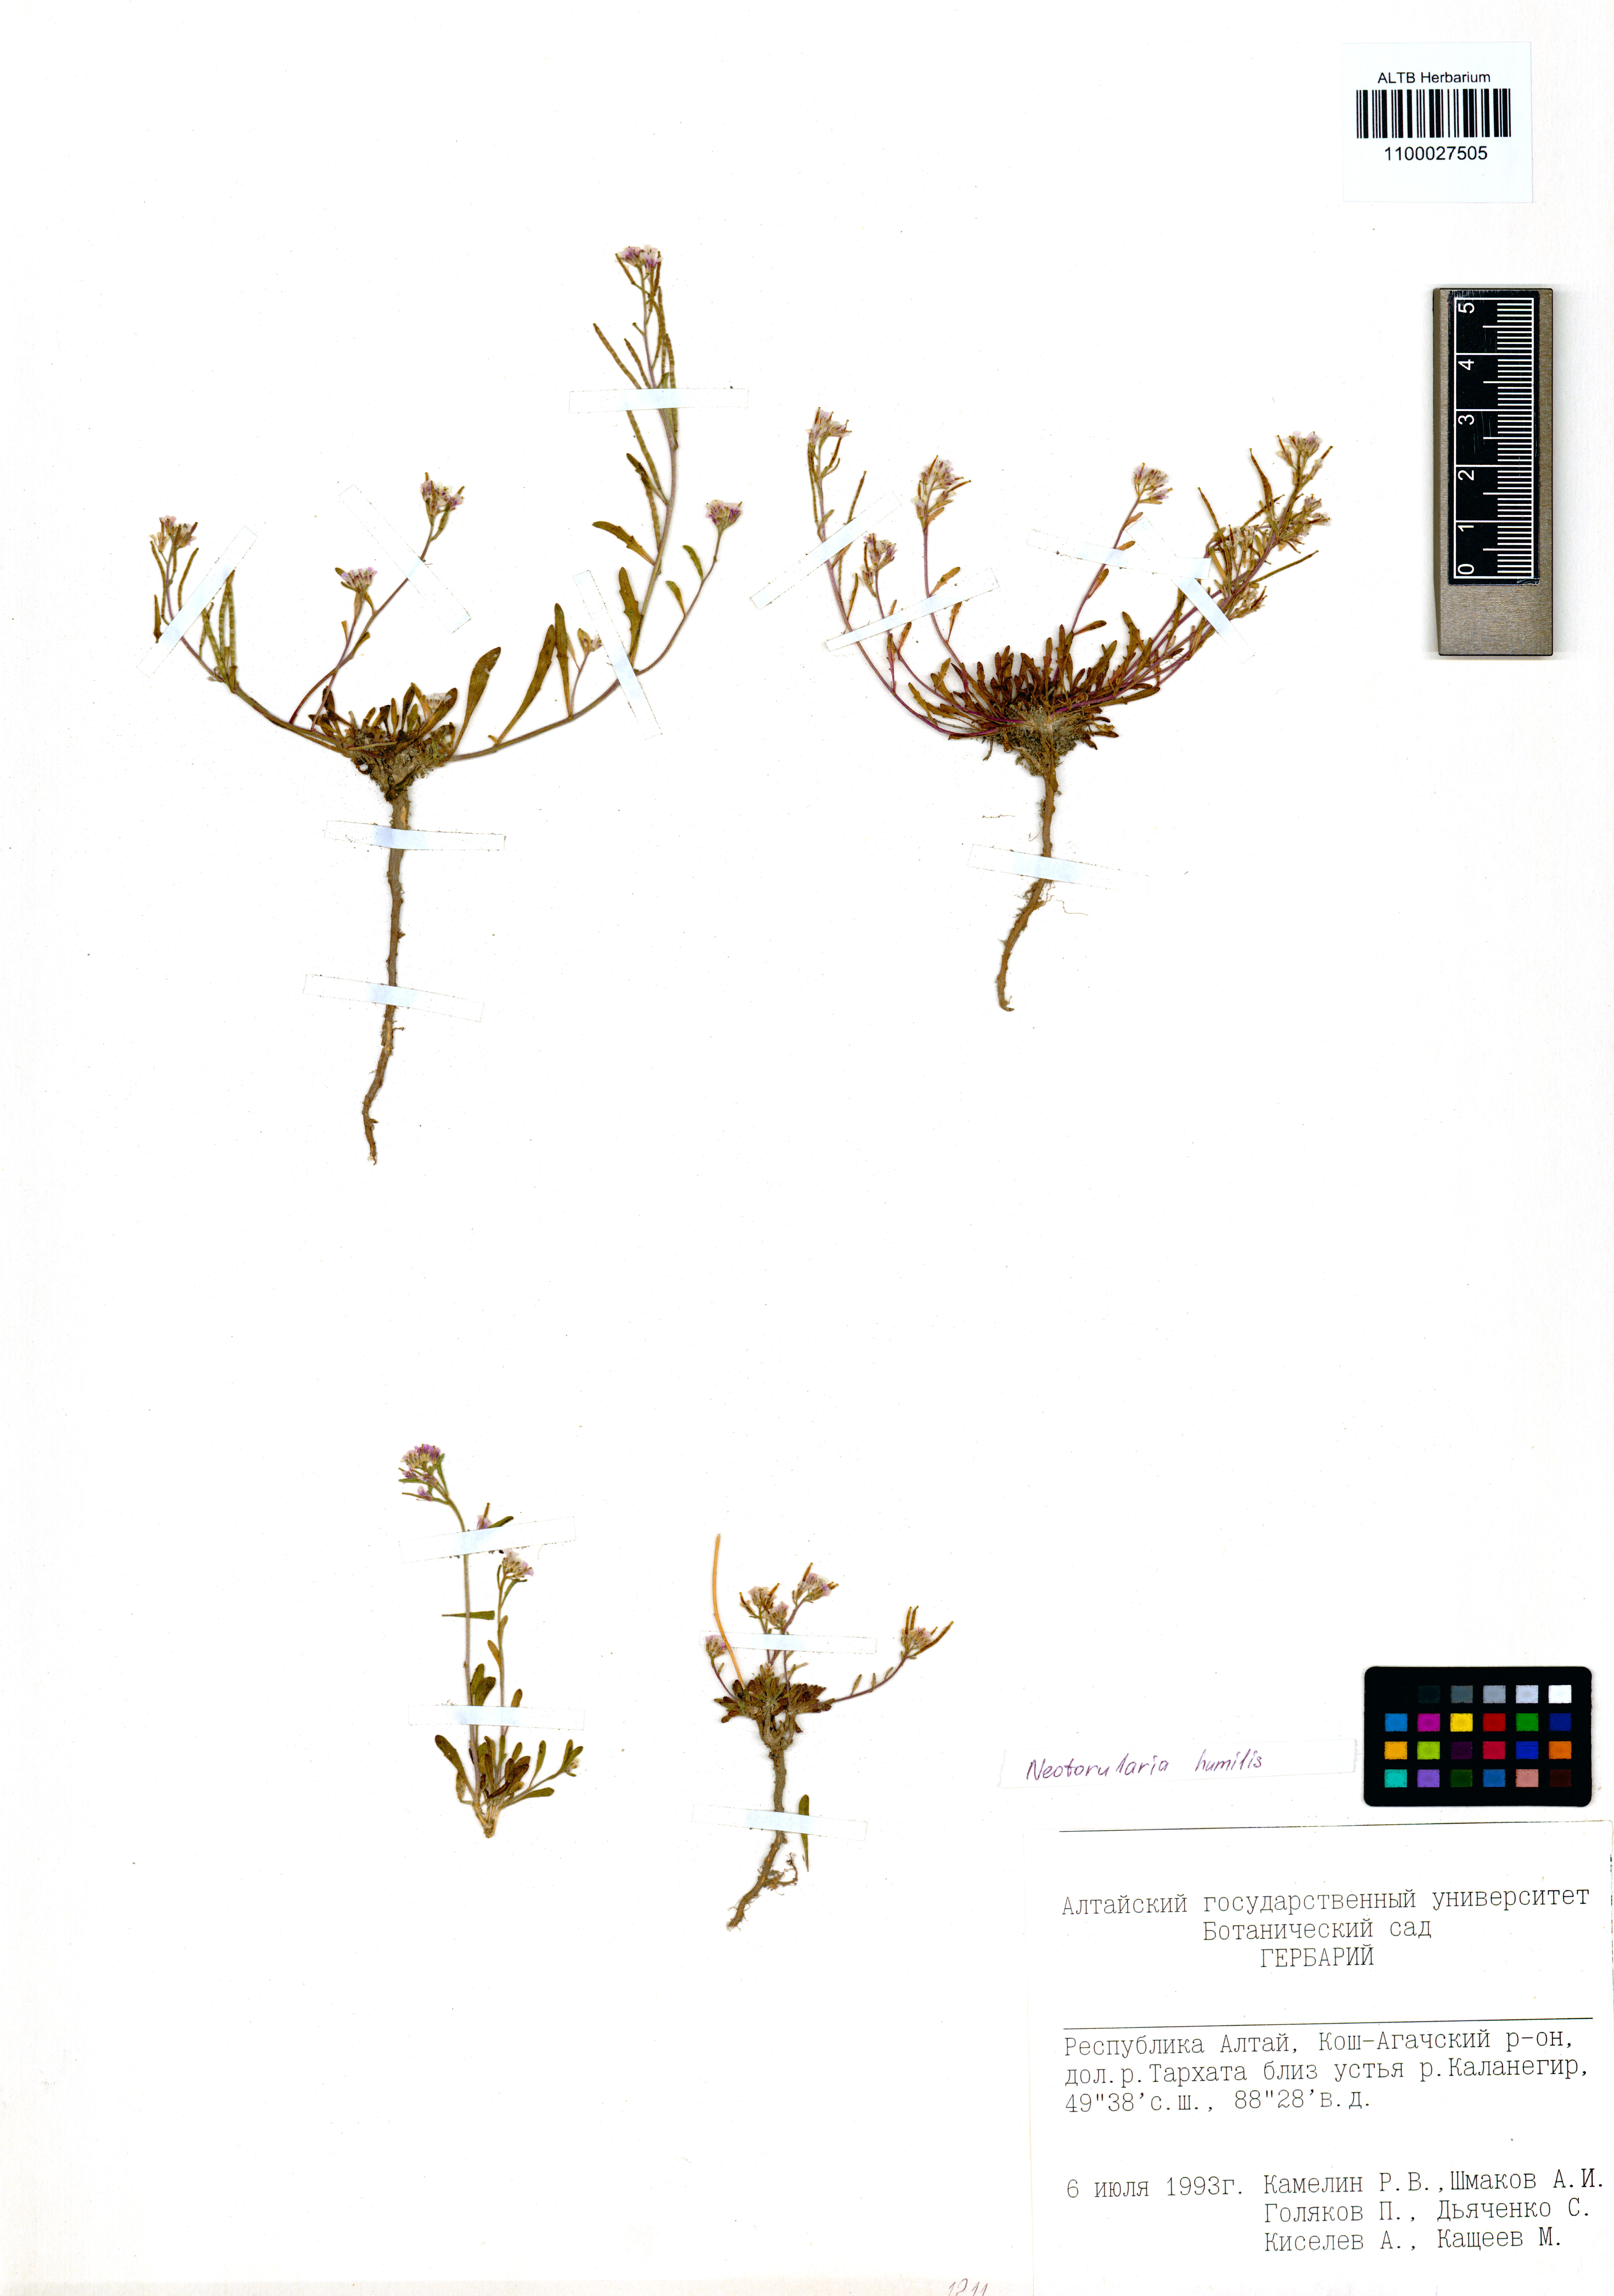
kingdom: Plantae
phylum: Tracheophyta
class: Magnoliopsida
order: Brassicales
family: Brassicaceae
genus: Braya
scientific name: Braya humilis
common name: Alpine northern rockcress
